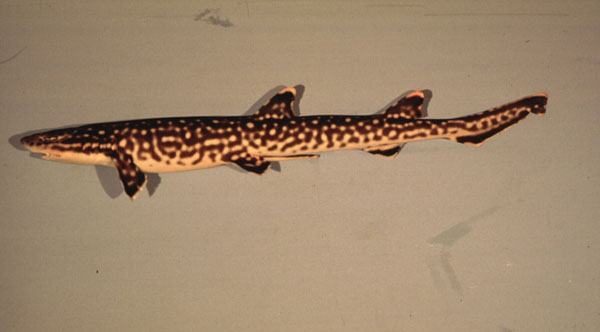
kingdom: Animalia
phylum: Chordata
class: Elasmobranchii
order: Carcharhiniformes
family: Scyliorhinidae
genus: Atelomycterus
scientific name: Atelomycterus marmoratus
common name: Coral catshark
